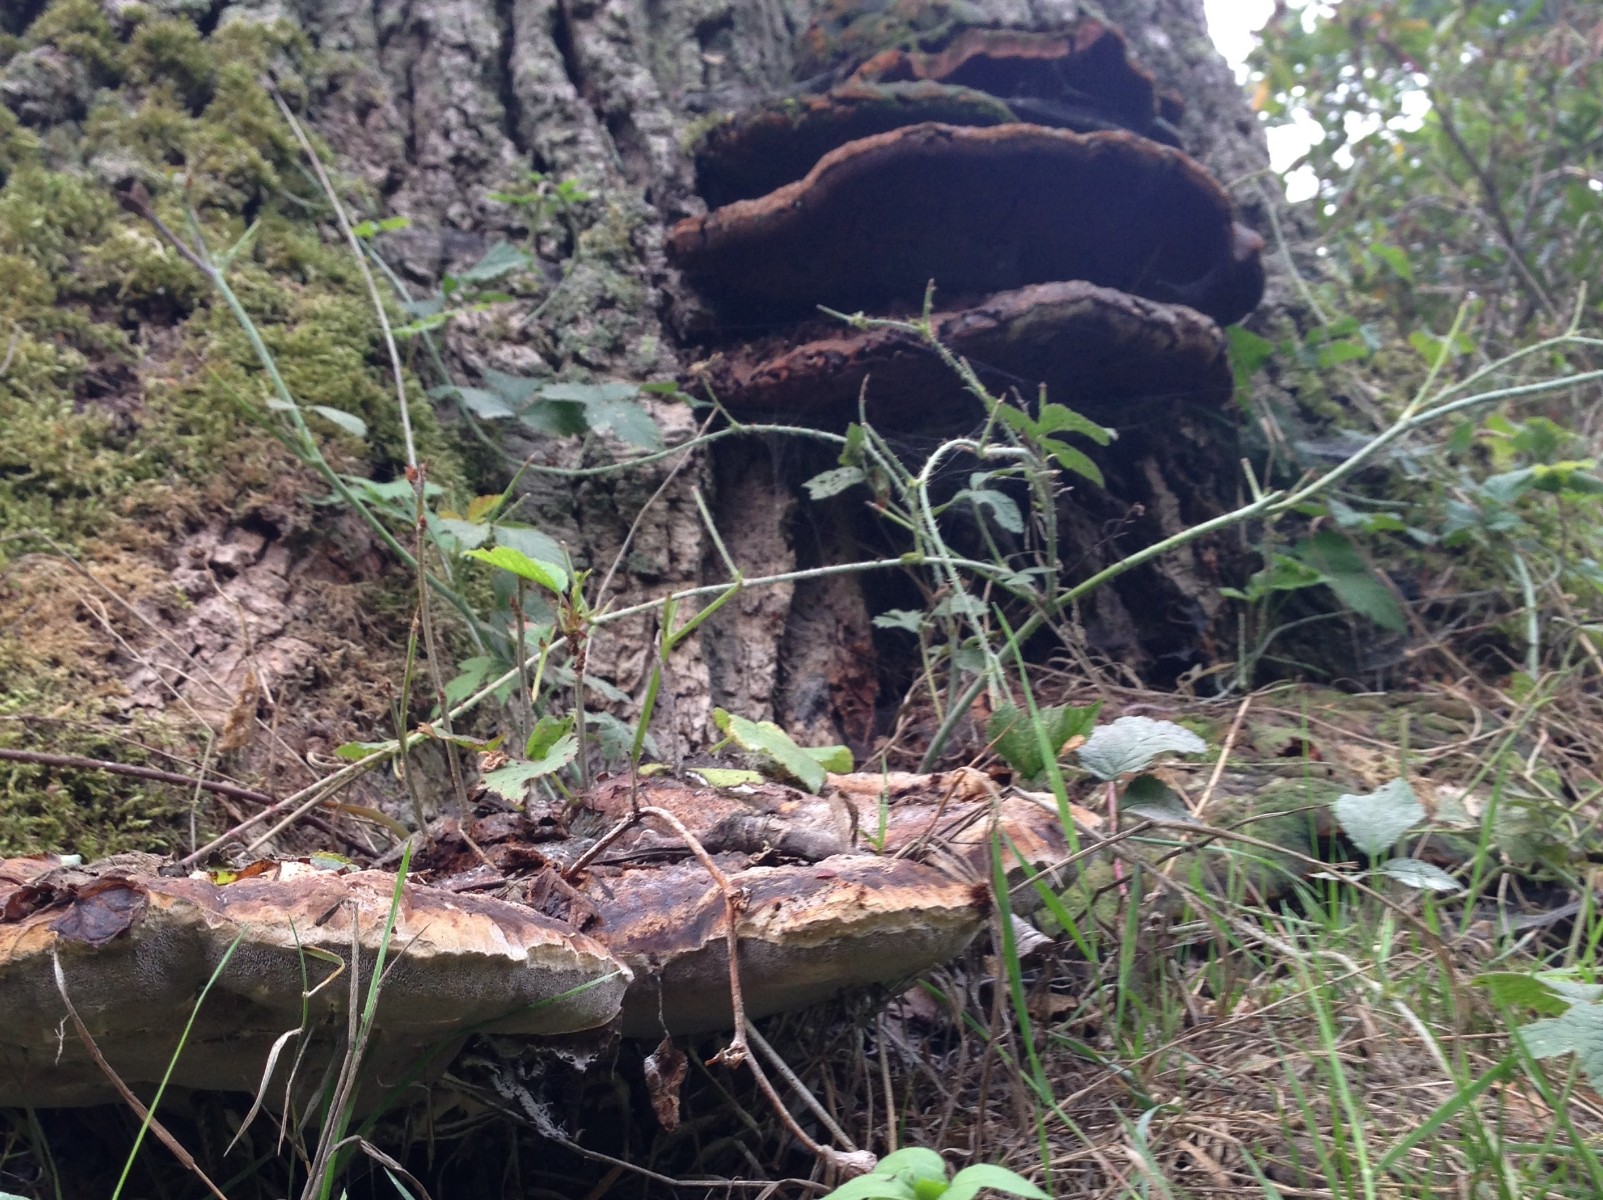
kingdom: Fungi
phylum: Basidiomycota
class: Agaricomycetes
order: Hymenochaetales
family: Hymenochaetaceae
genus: Pseudoinonotus
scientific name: Pseudoinonotus dryadeus
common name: ege-spejlporesvamp
